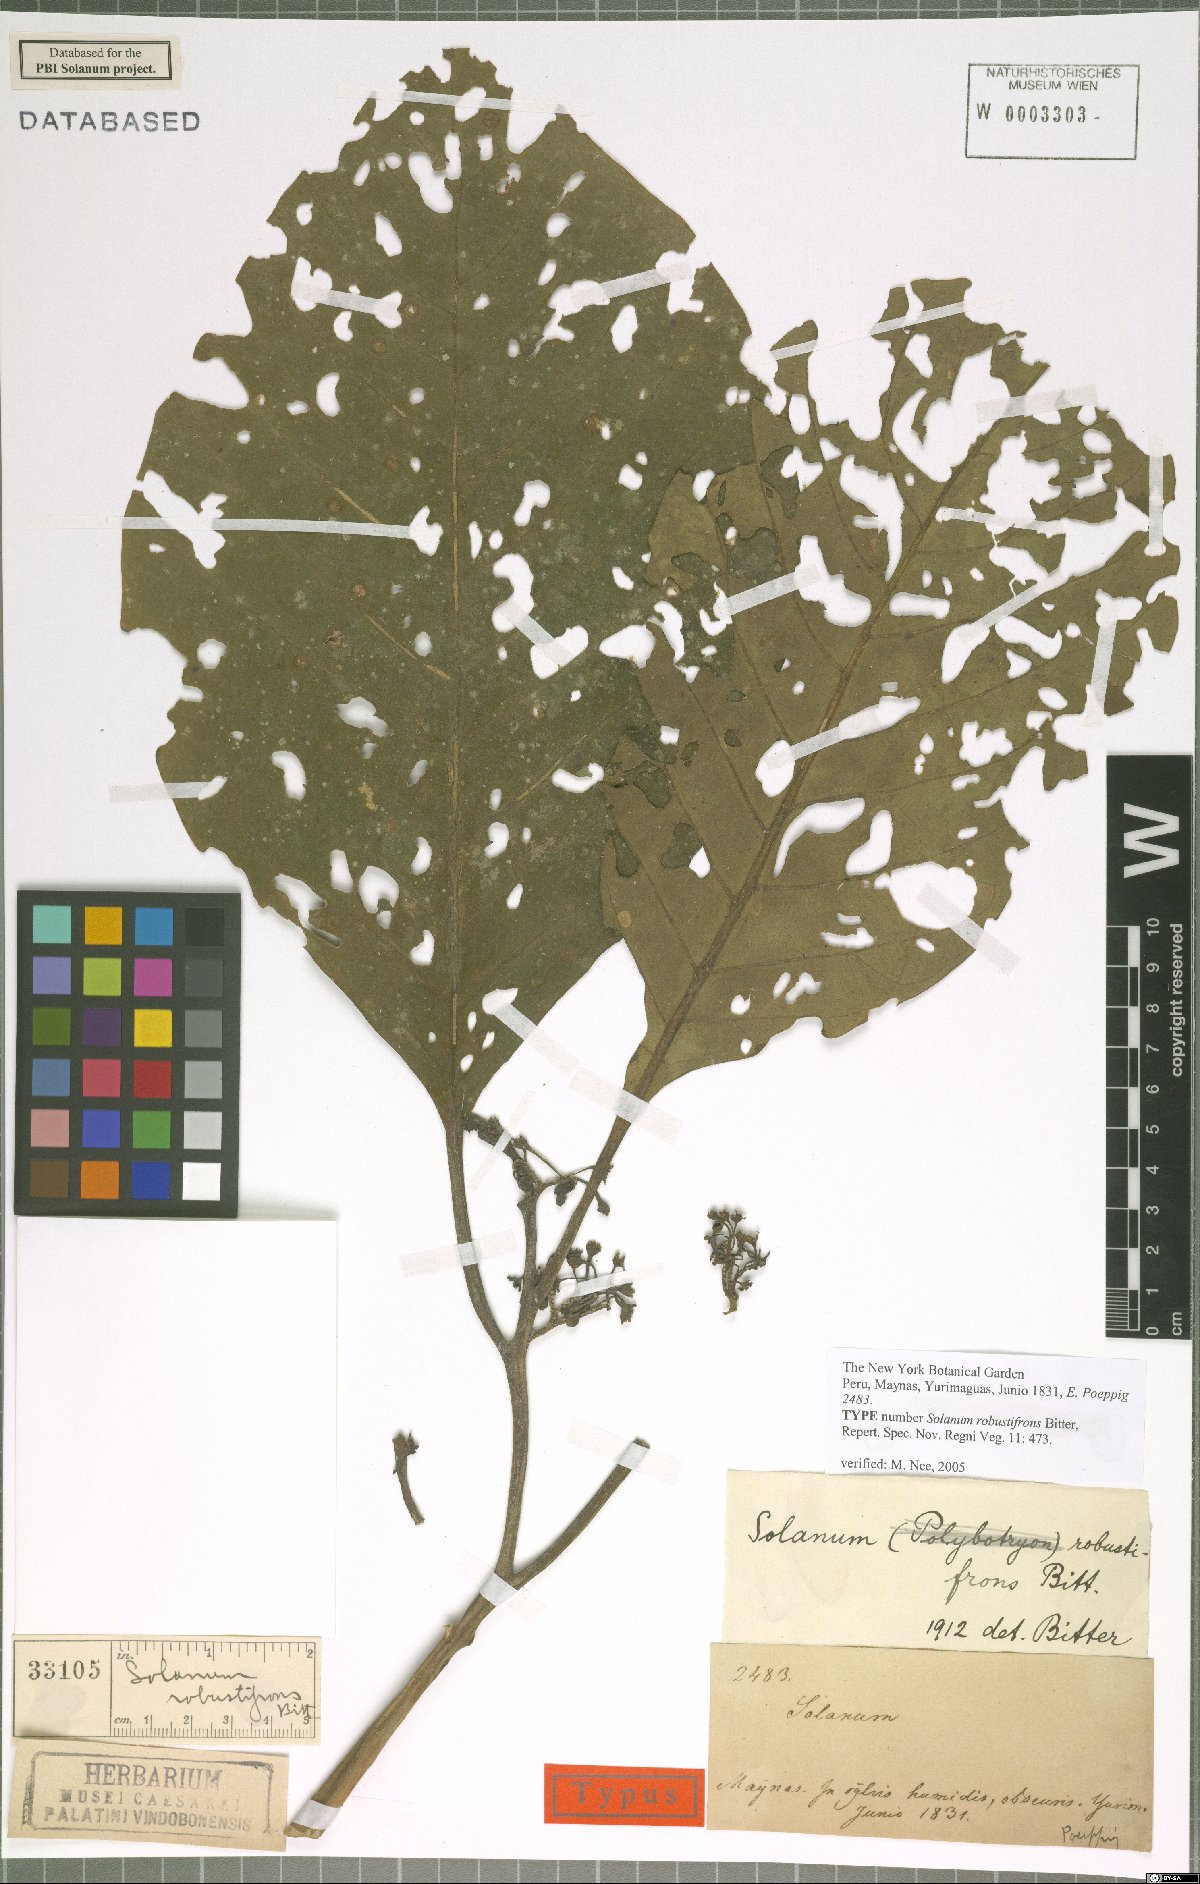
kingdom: Plantae
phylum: Tracheophyta
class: Magnoliopsida
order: Solanales
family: Solanaceae
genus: Solanum
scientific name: Solanum robustifrons
